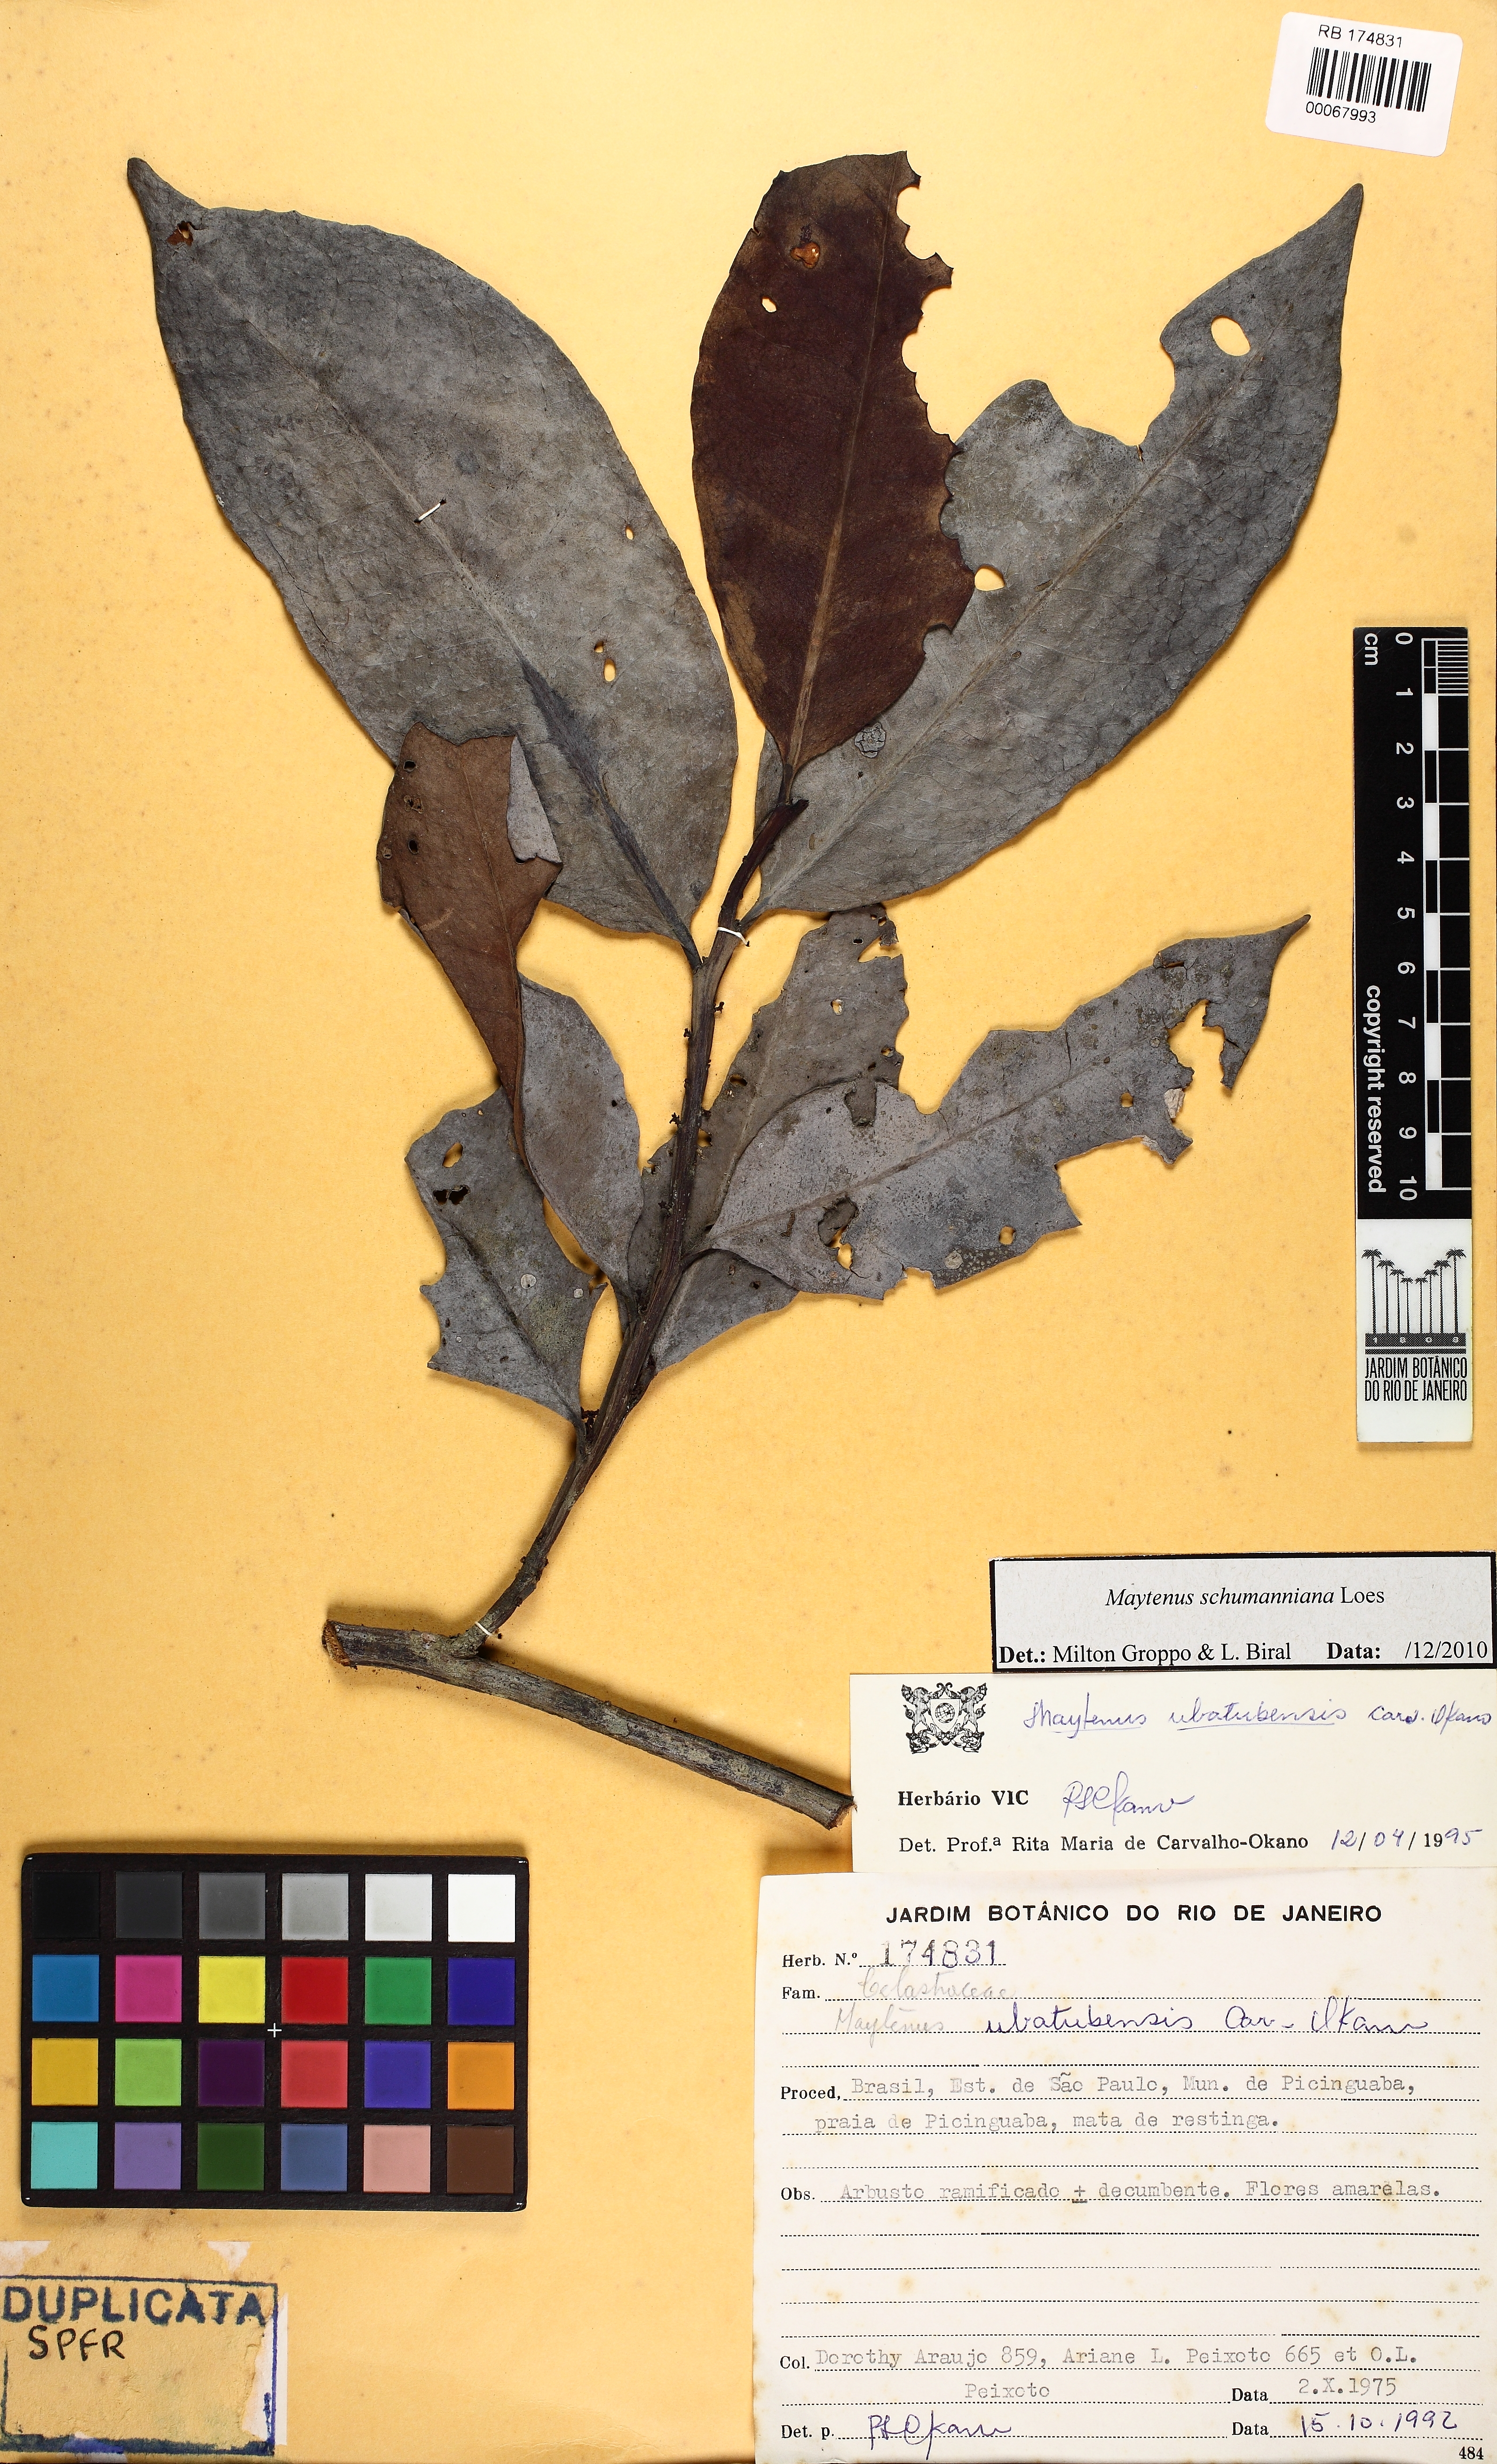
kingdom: Plantae
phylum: Tracheophyta
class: Magnoliopsida
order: Celastrales
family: Celastraceae
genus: Monteverdia
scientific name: Monteverdia schumanniana
